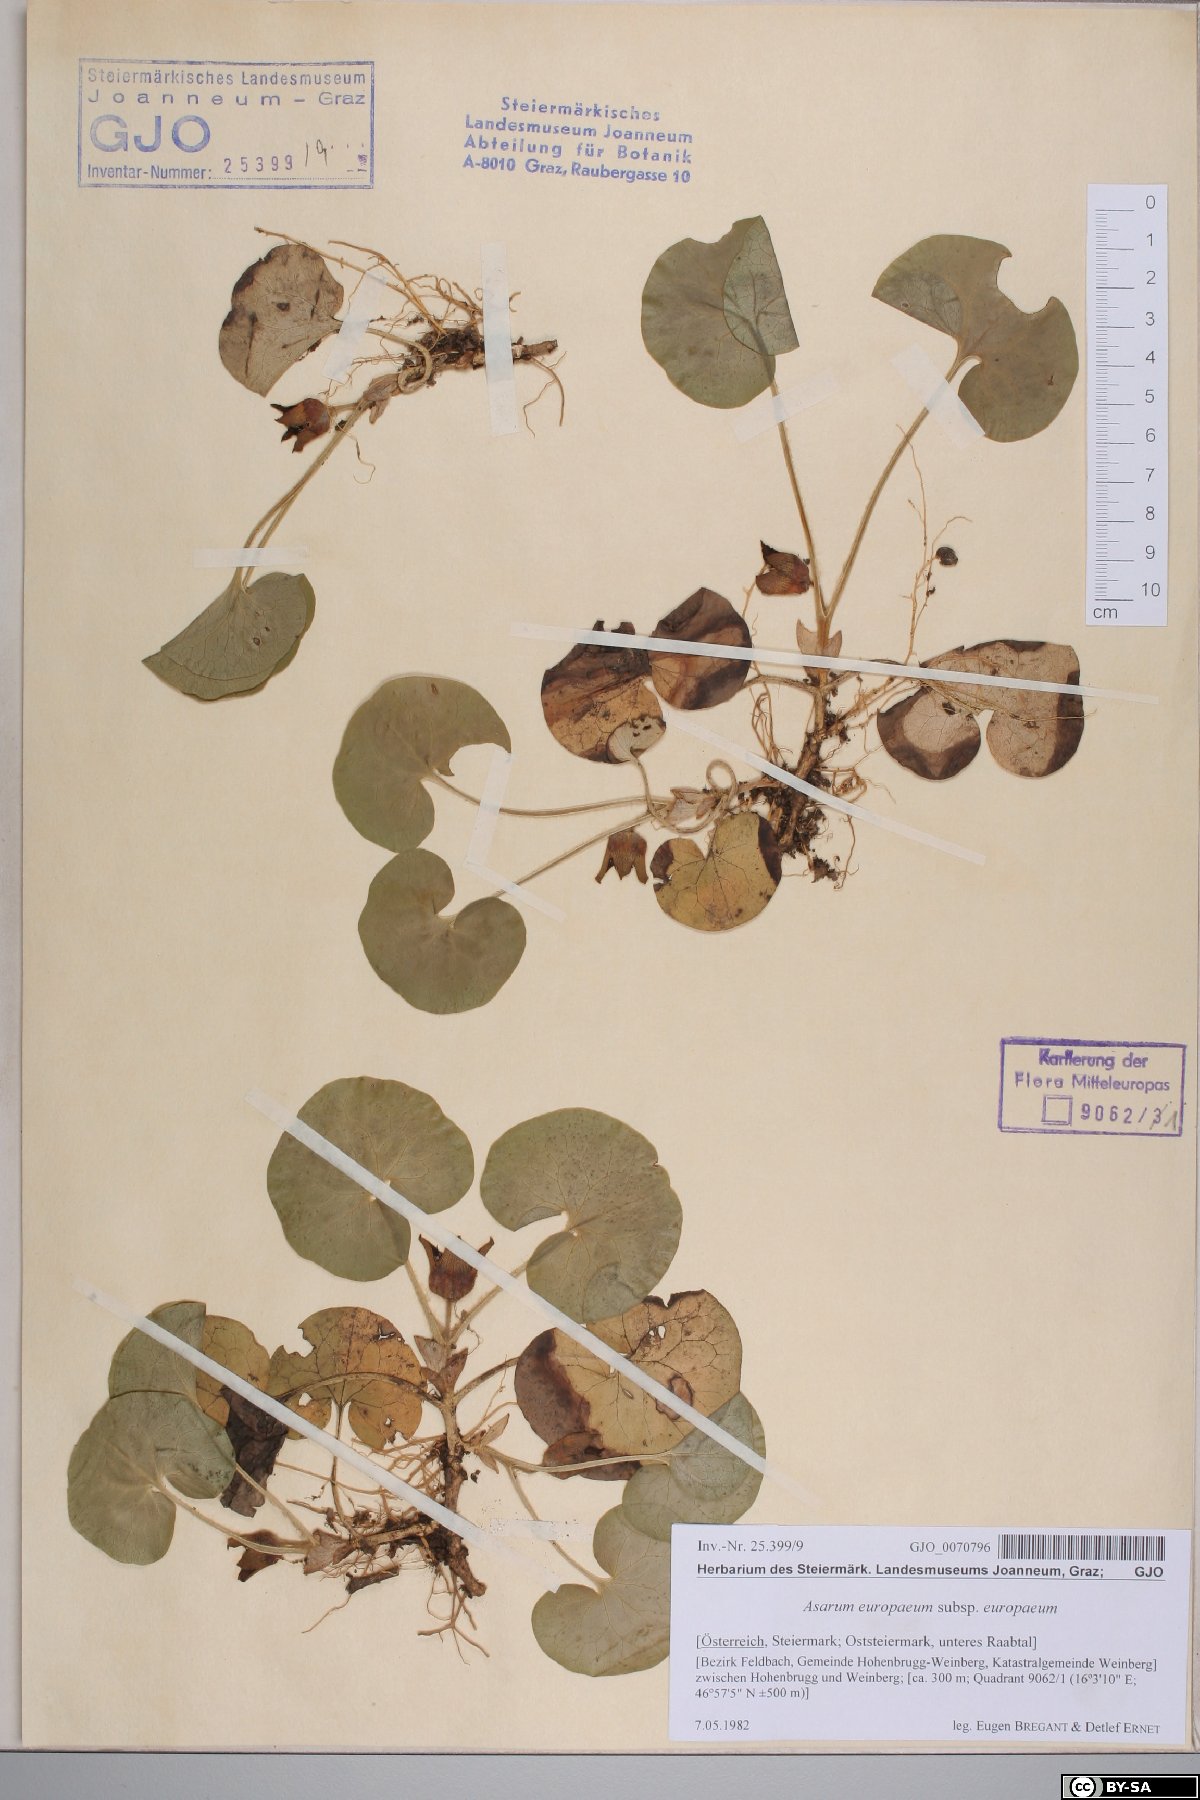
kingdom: Plantae
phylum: Tracheophyta
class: Magnoliopsida
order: Piperales
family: Aristolochiaceae
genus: Asarum
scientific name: Asarum europaeum
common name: Asarabacca
